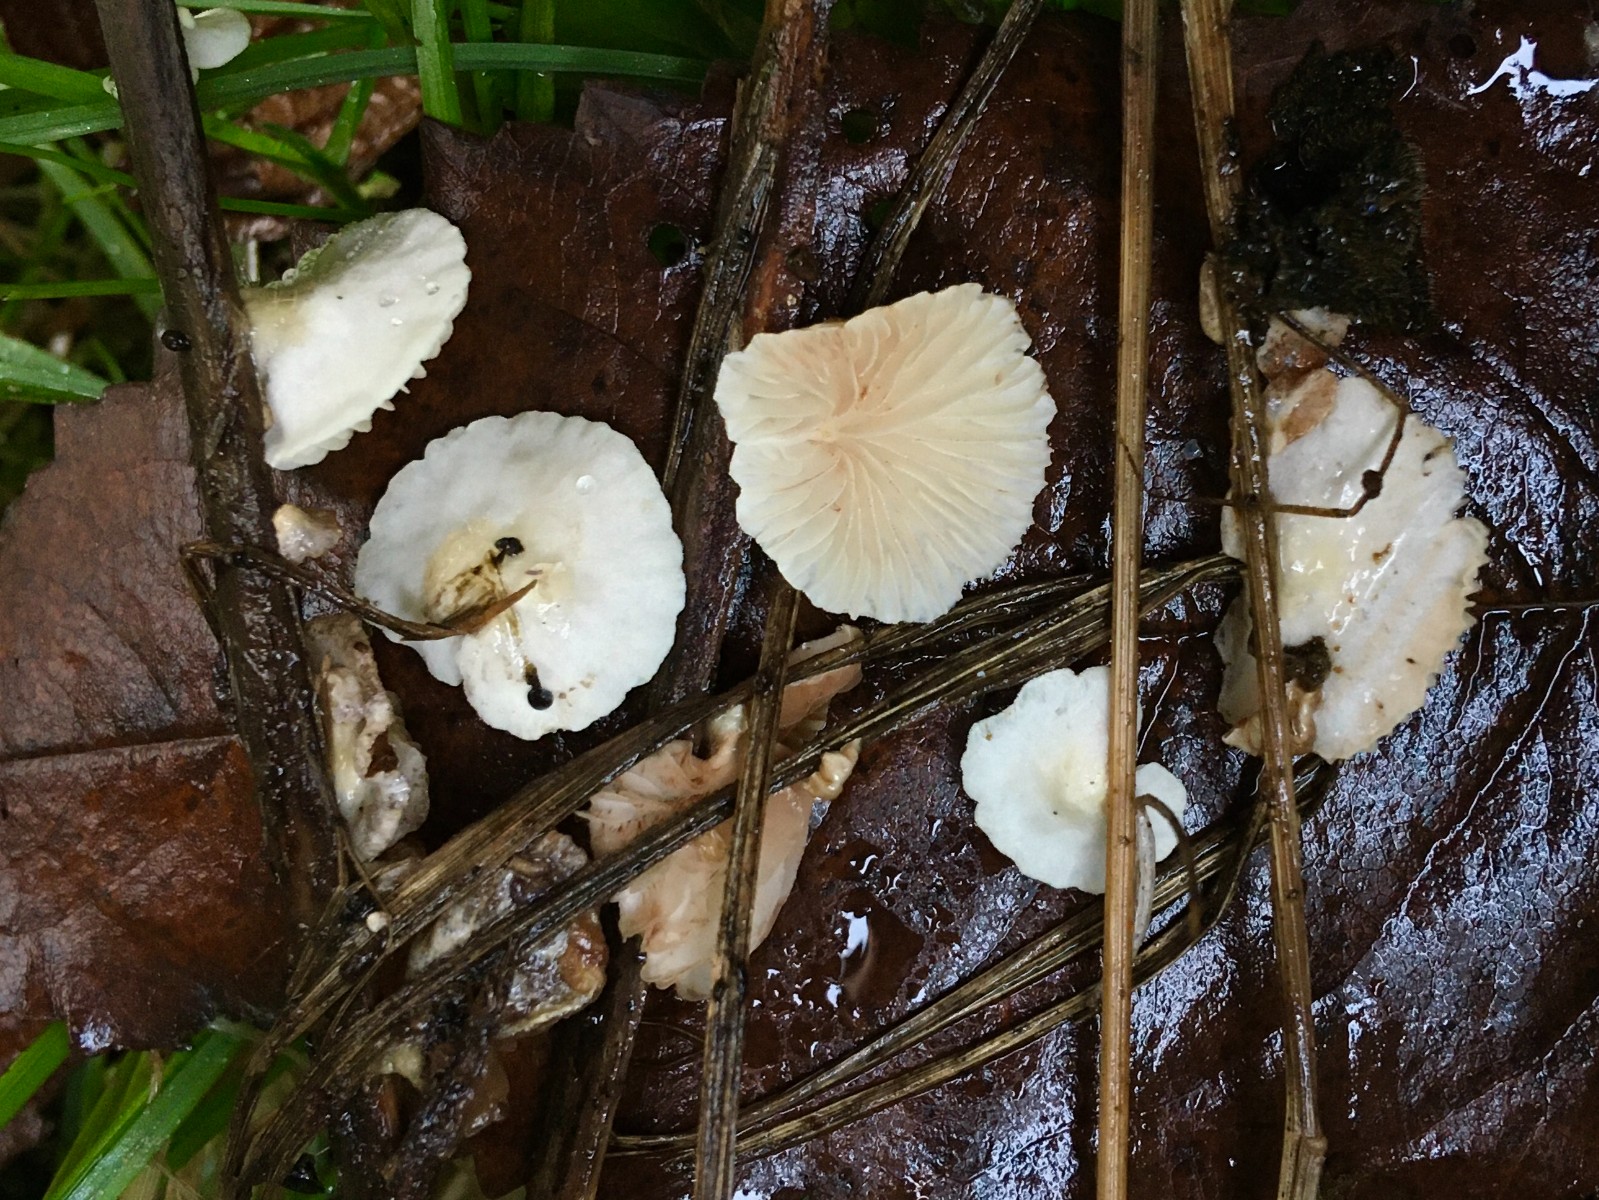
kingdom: Fungi
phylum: Basidiomycota
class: Agaricomycetes
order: Agaricales
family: Crepidotaceae
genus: Crepidotus
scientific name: Crepidotus luteolus
